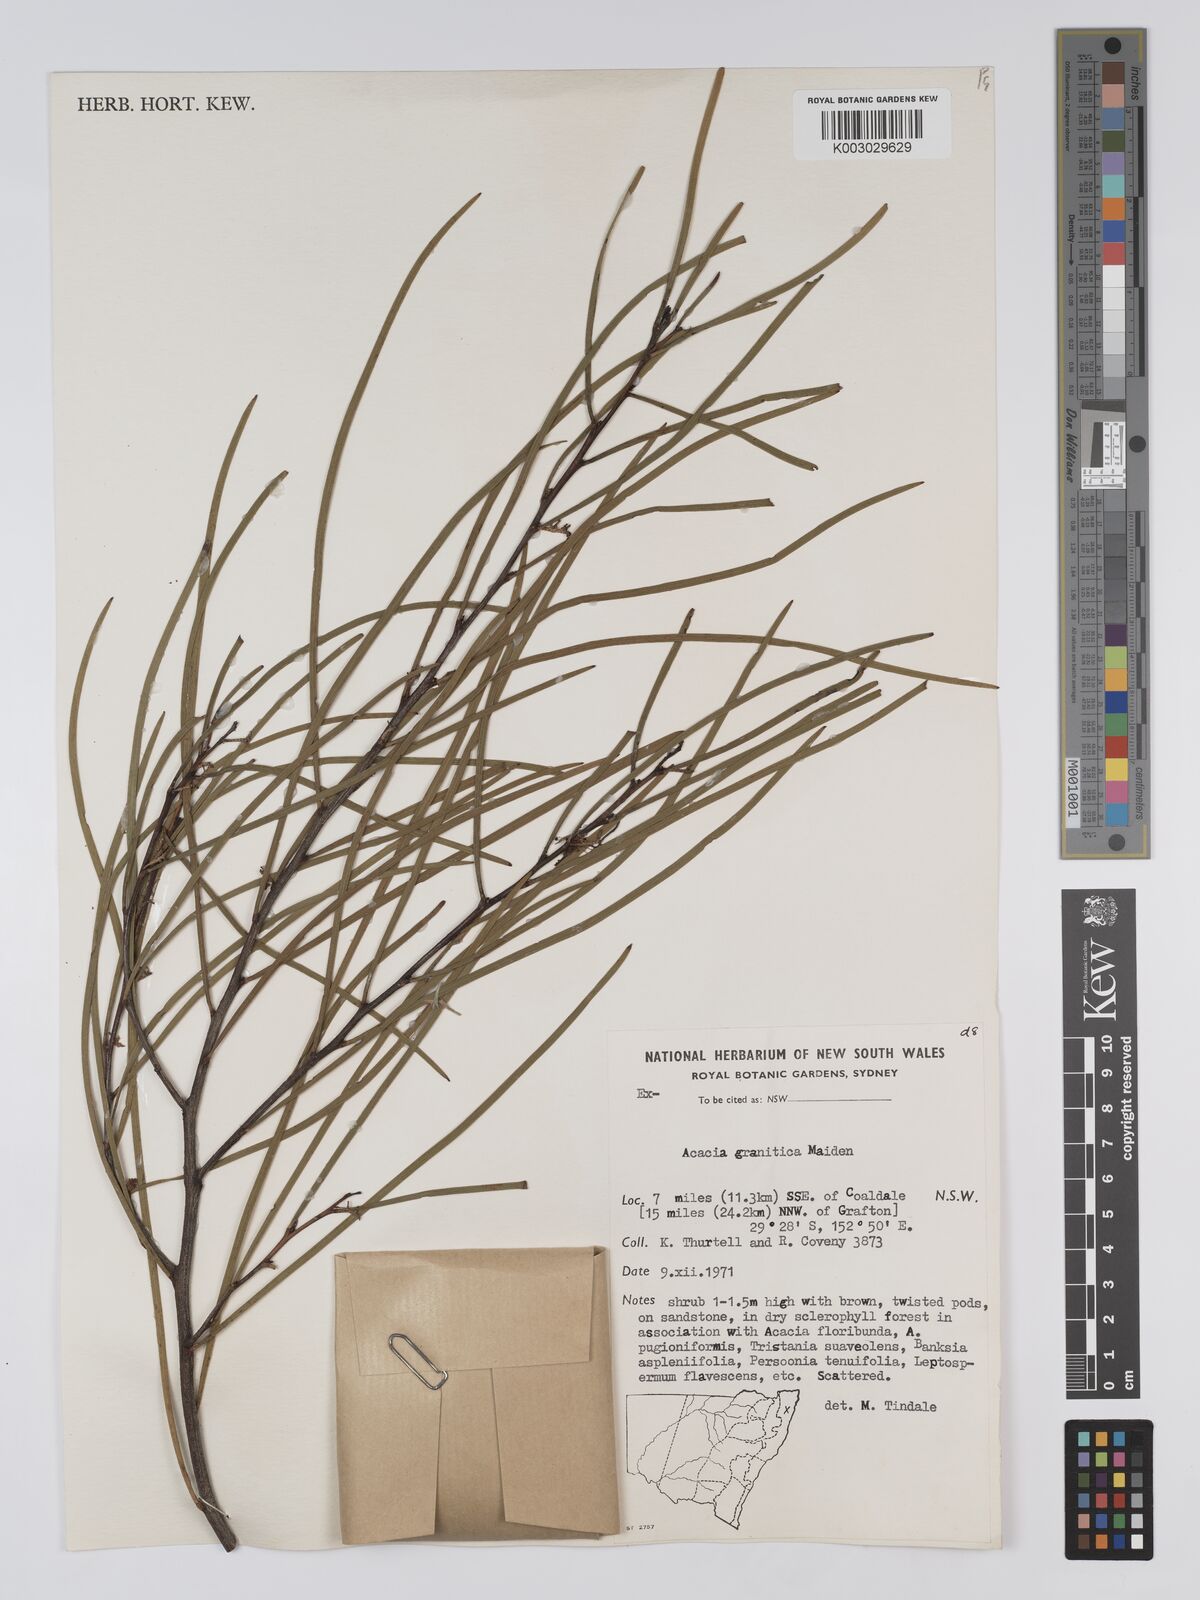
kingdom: Plantae
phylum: Tracheophyta
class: Magnoliopsida
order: Fabales
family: Fabaceae
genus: Acacia
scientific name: Acacia granitica
